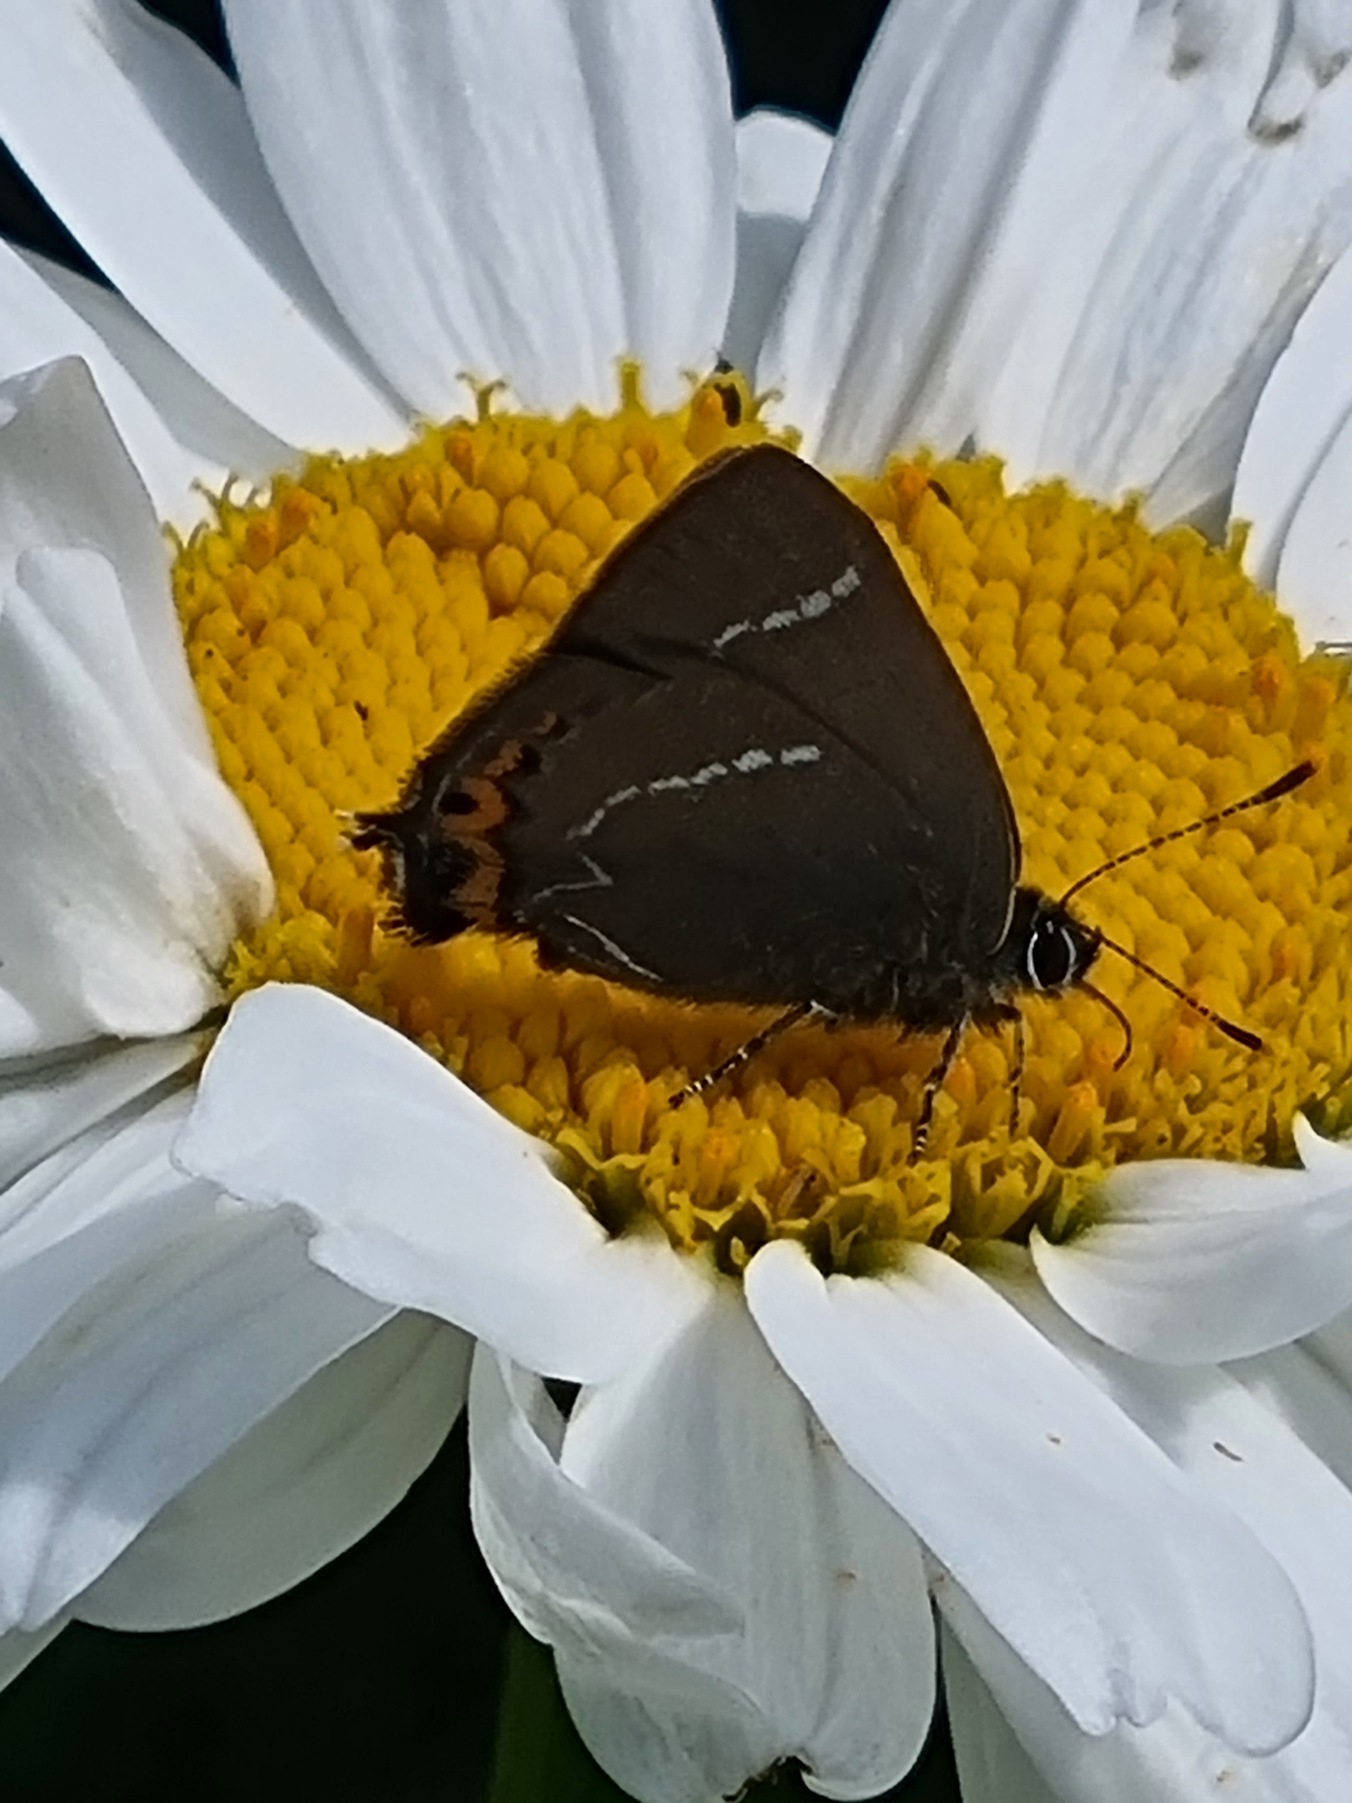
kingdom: Animalia
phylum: Arthropoda
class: Insecta
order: Lepidoptera
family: Lycaenidae
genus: Satyrium
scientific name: Satyrium w-album
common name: Det hvide W
